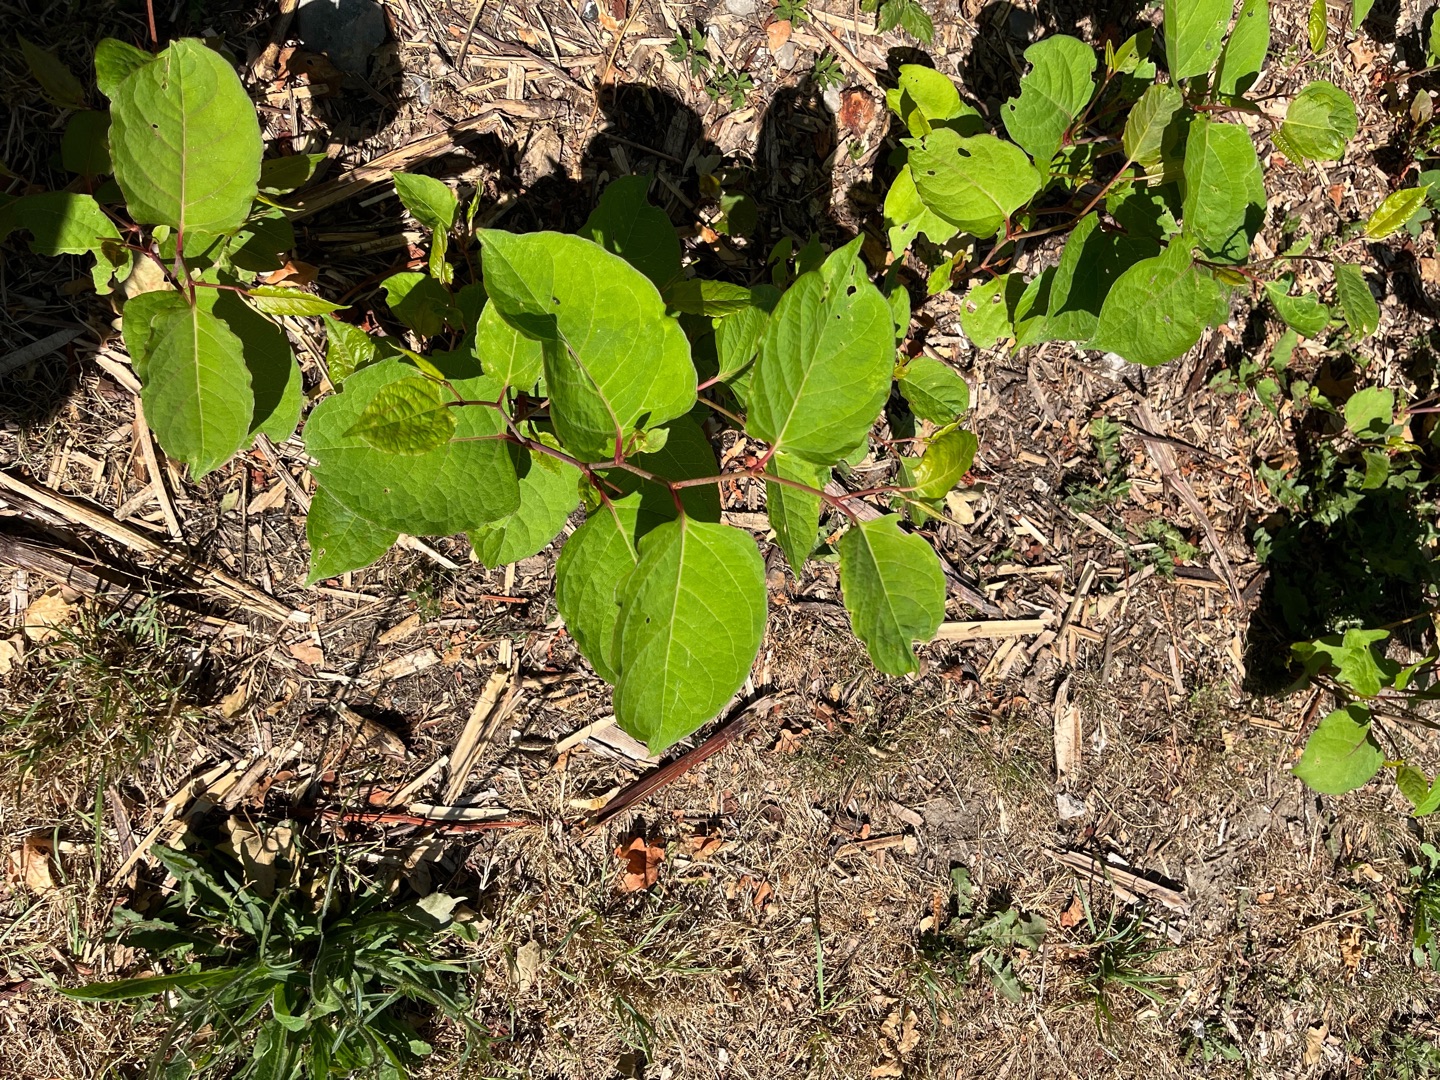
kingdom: Plantae
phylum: Tracheophyta
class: Magnoliopsida
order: Caryophyllales
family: Polygonaceae
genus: Reynoutria
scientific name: Reynoutria japonica
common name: Japan-pileurt
